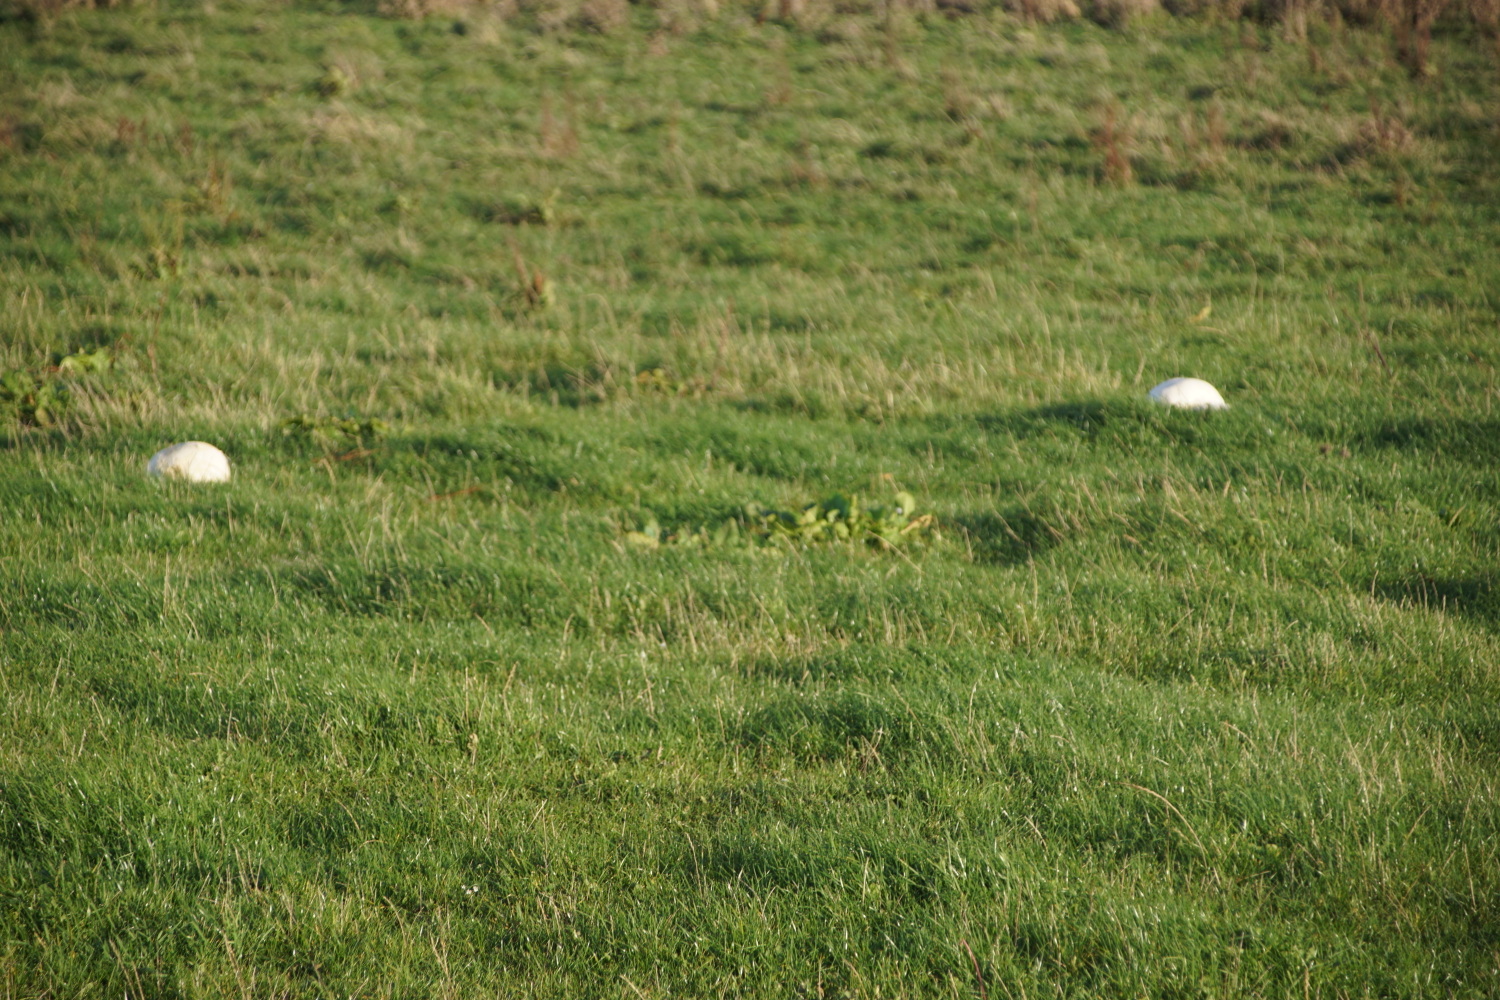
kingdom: Fungi
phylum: Basidiomycota
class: Agaricomycetes
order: Agaricales
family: Lycoperdaceae
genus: Calvatia
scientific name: Calvatia gigantea
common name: kæmpestøvbold
